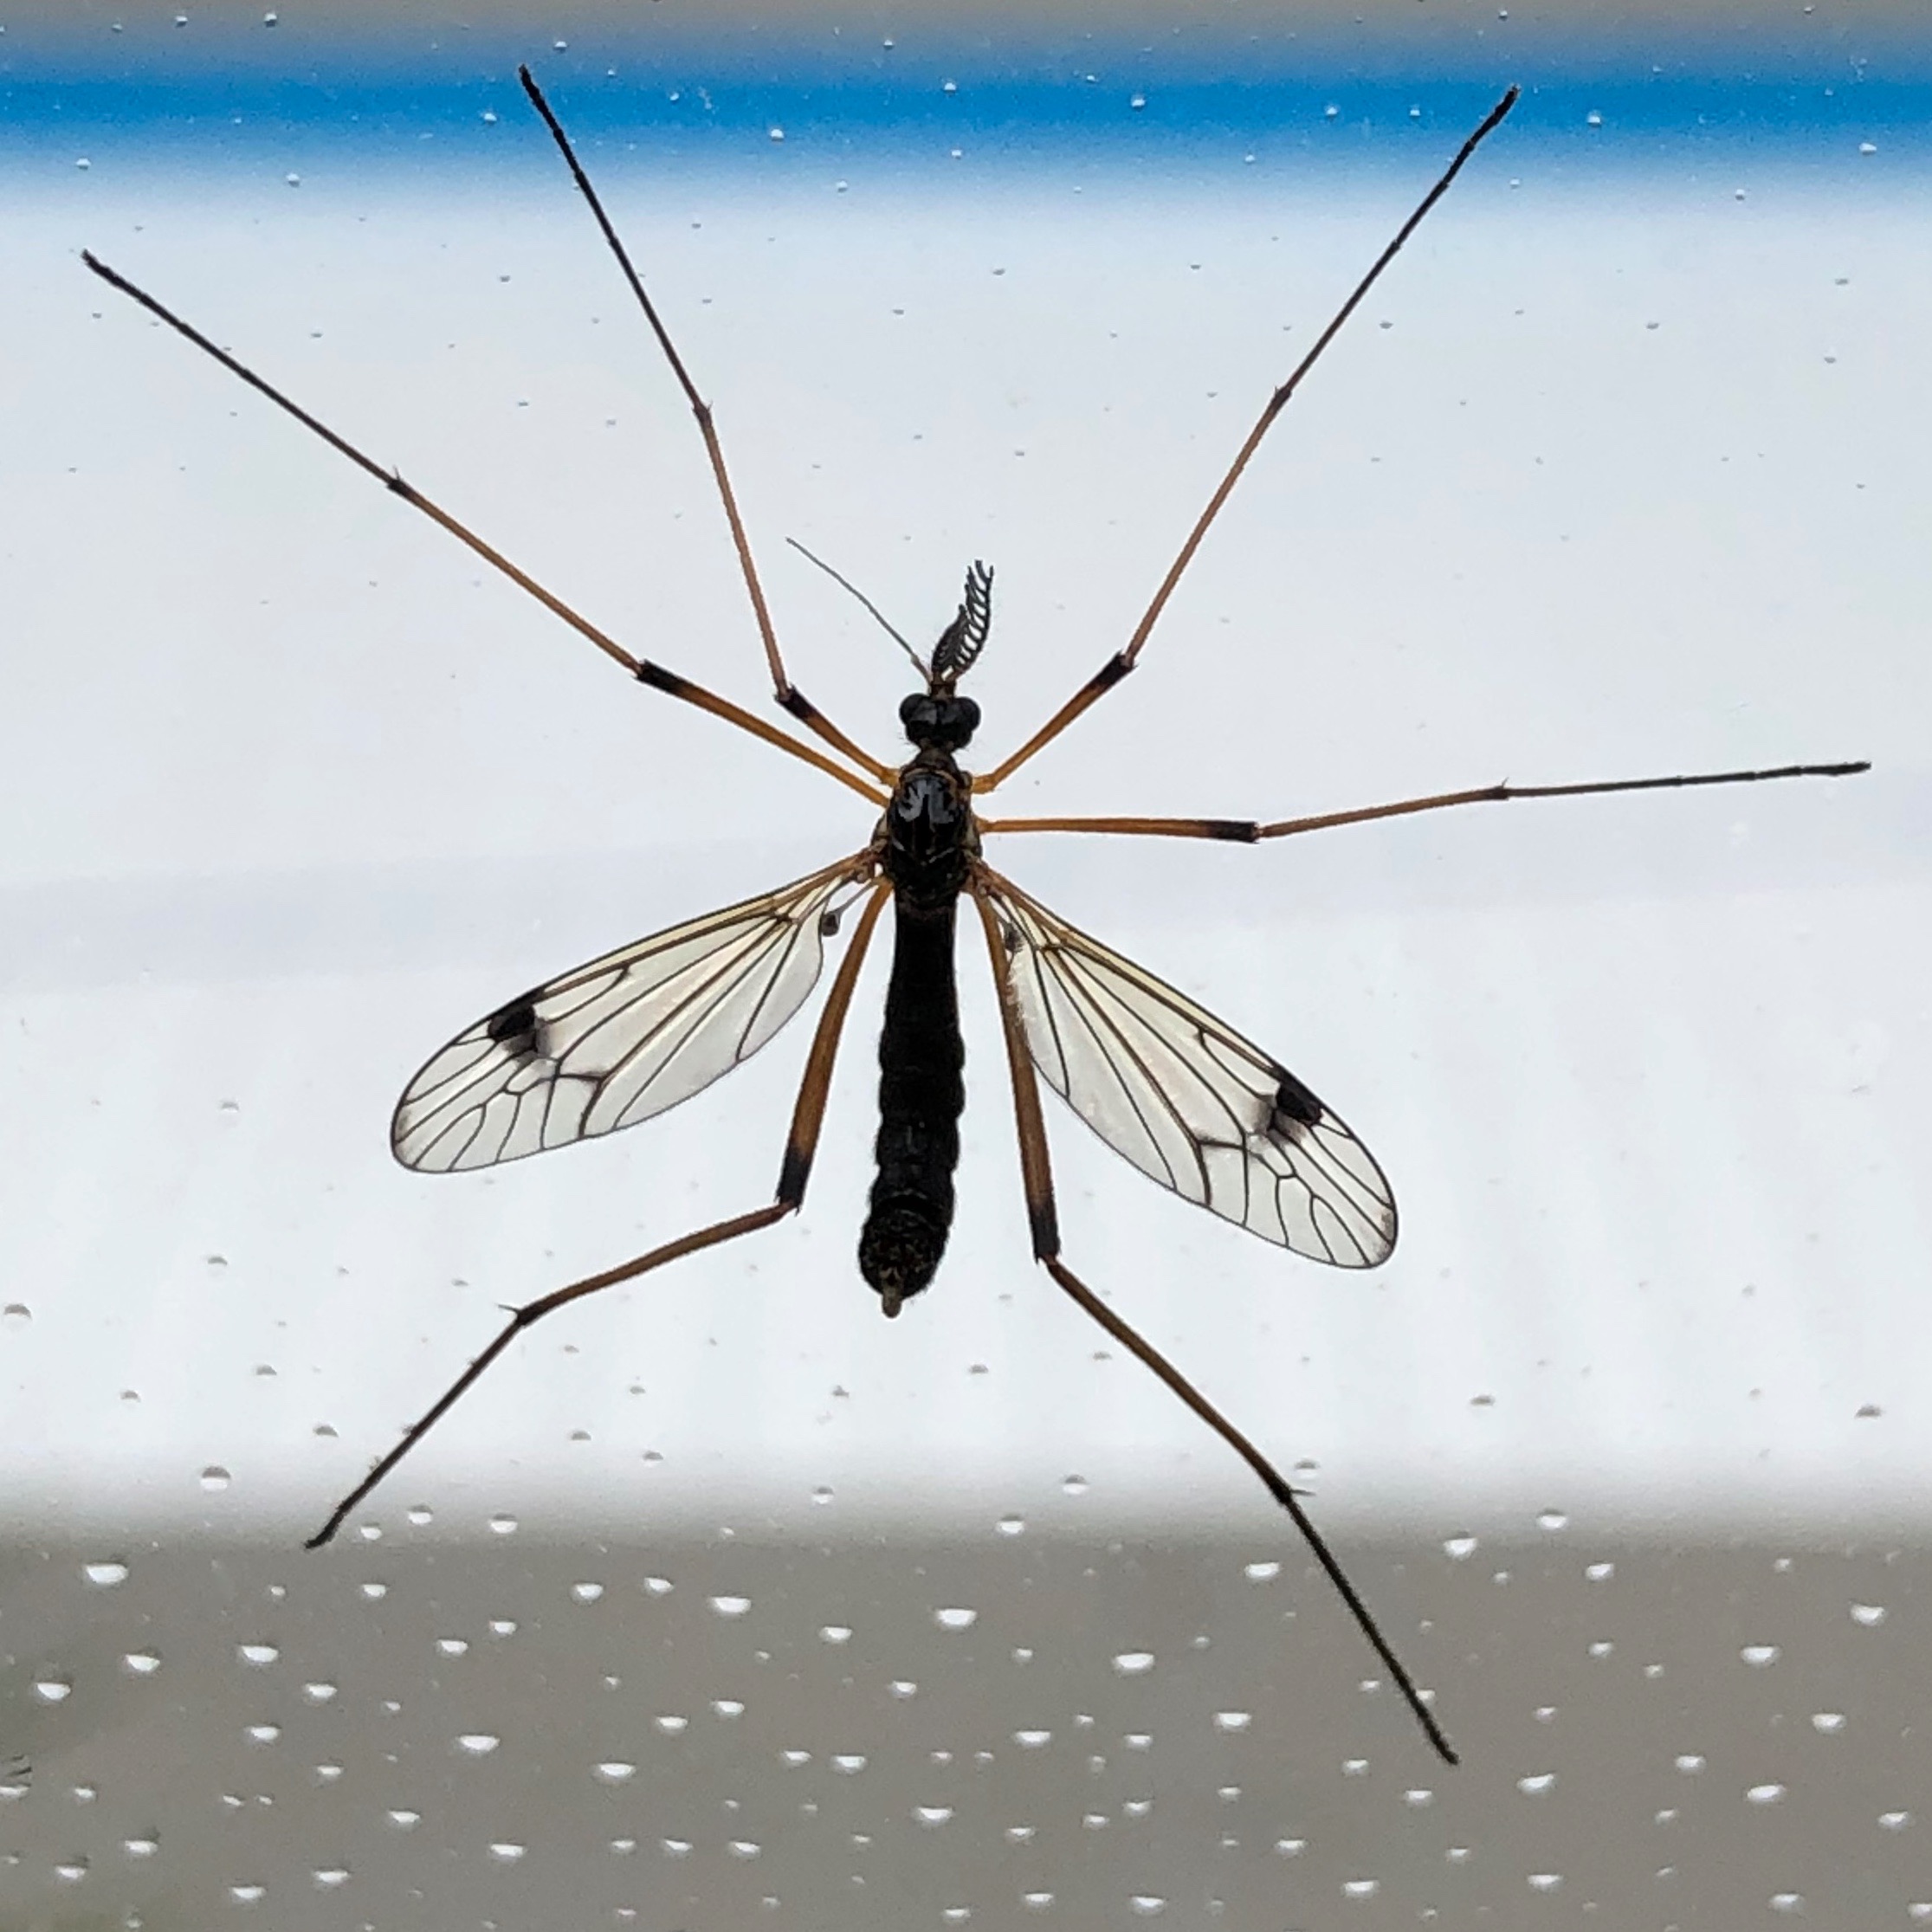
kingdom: Animalia
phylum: Arthropoda
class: Insecta
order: Diptera
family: Tipulidae
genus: Dictenidia
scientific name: Dictenidia bimaculata
